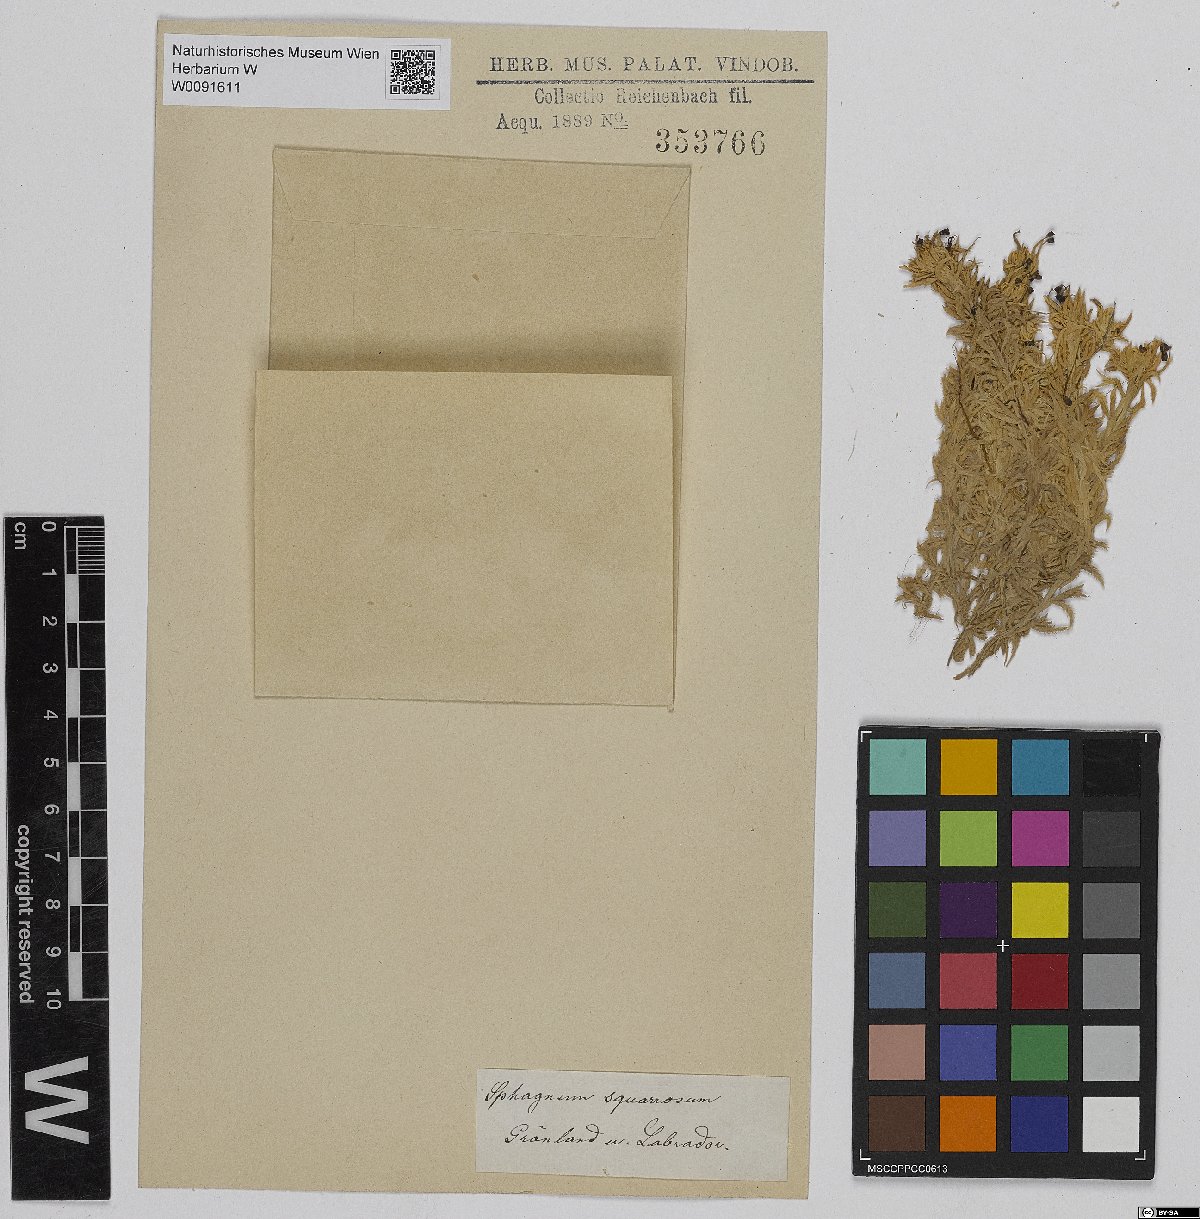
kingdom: Plantae
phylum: Bryophyta
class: Sphagnopsida
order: Sphagnales
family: Sphagnaceae
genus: Sphagnum
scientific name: Sphagnum squarrosum
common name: Shaggy peat moss
